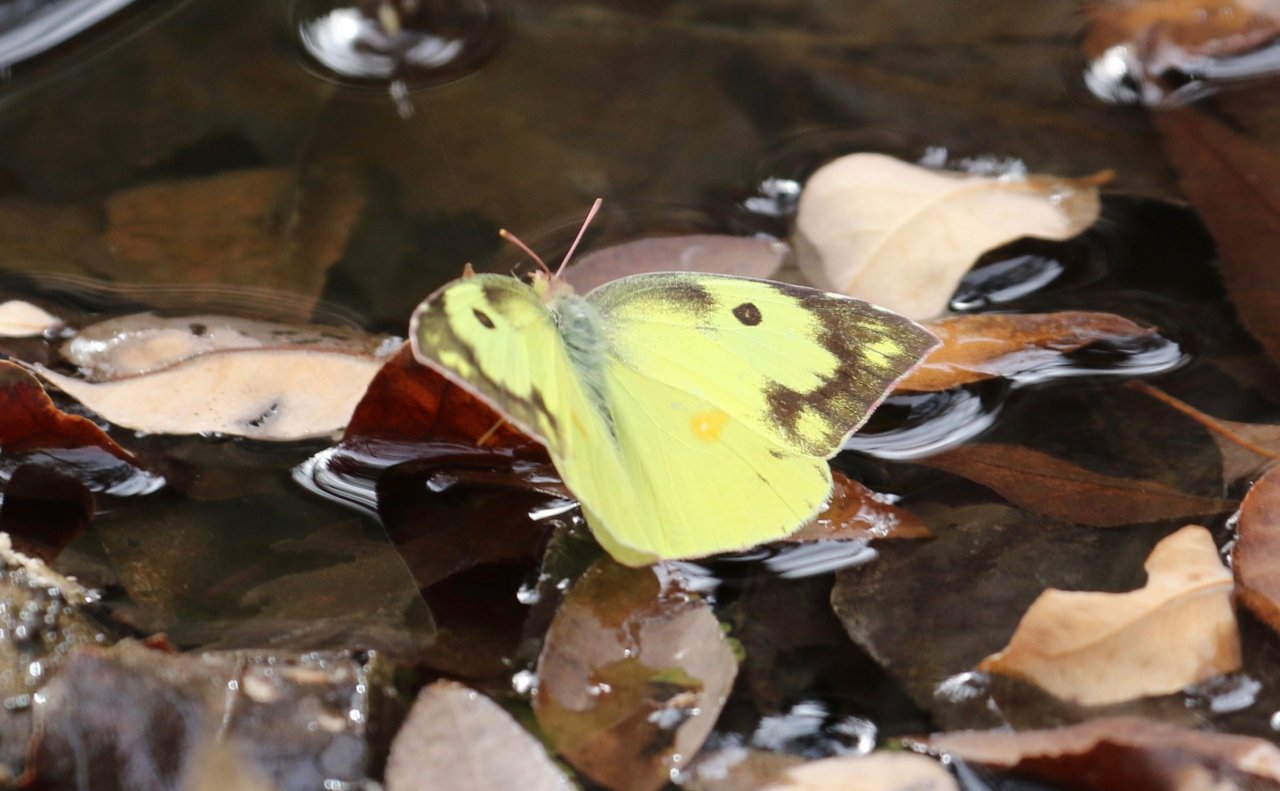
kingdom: Animalia
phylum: Arthropoda
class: Insecta
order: Lepidoptera
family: Pieridae
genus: Zerene
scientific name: Zerene cesonia
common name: Southern Dogface
